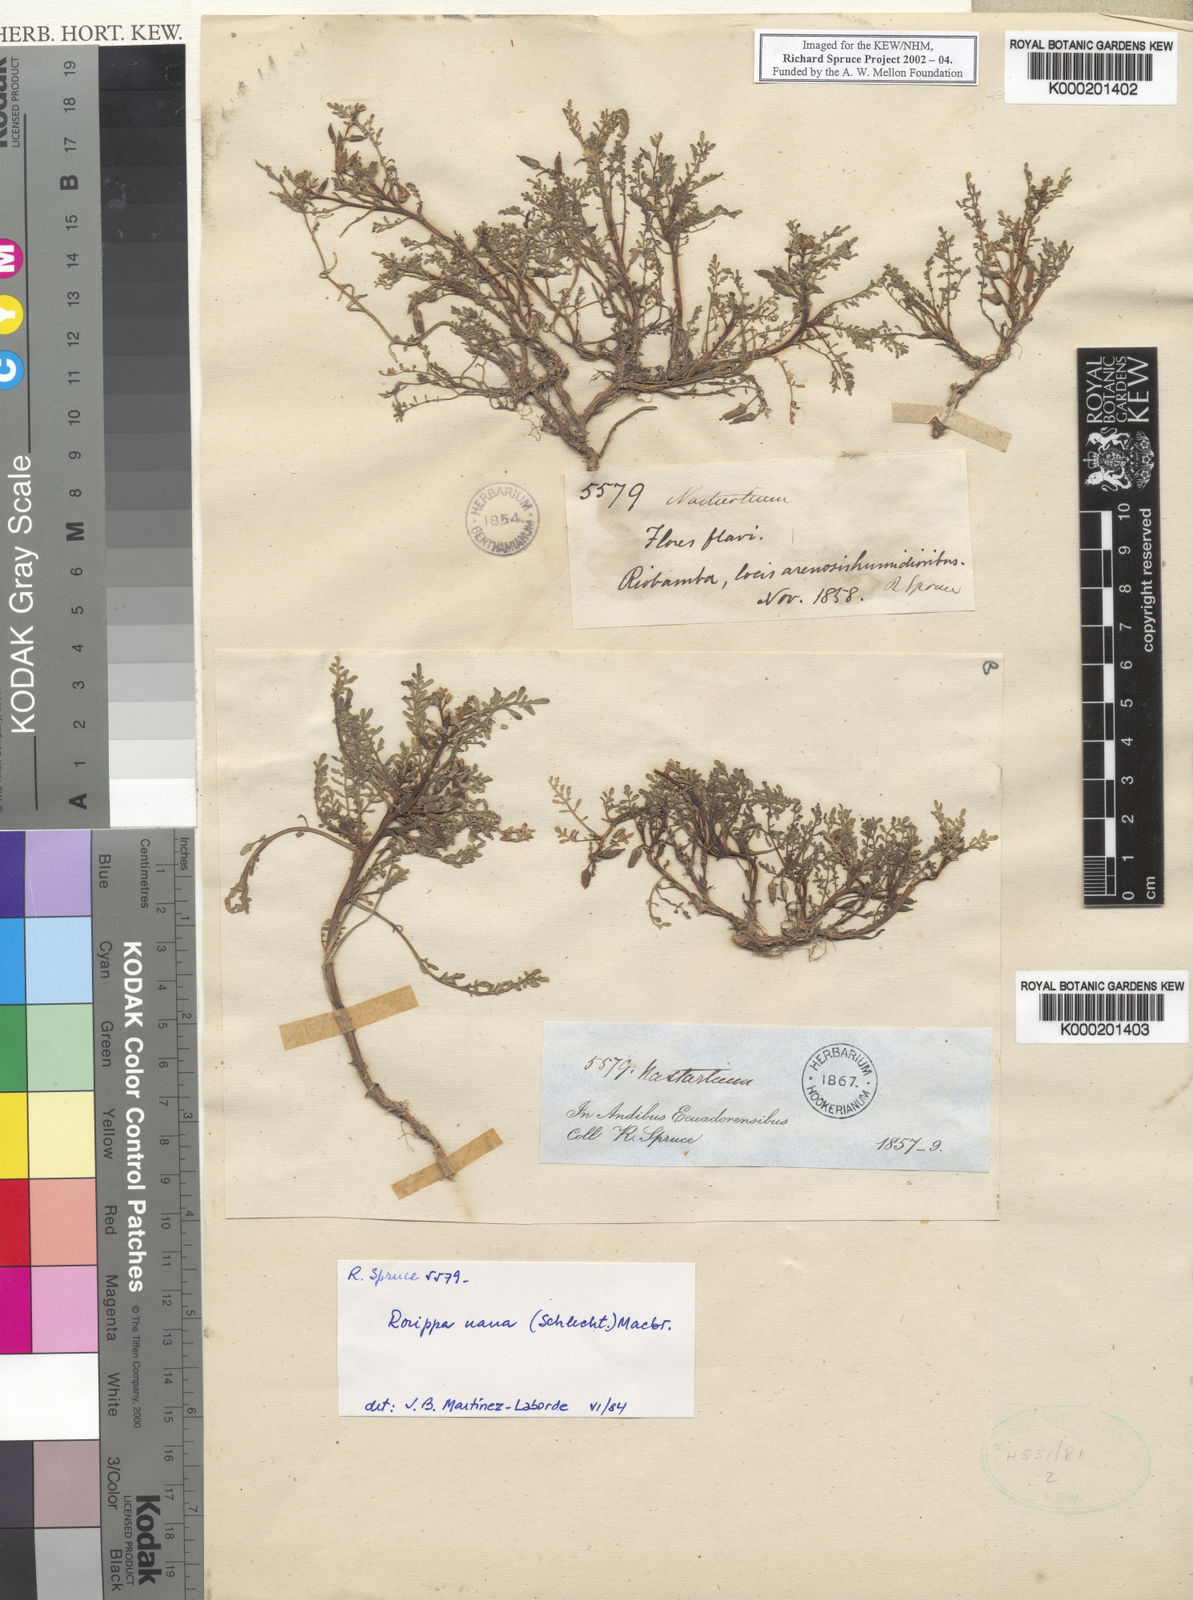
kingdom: Plantae
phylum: Tracheophyta
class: Magnoliopsida
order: Brassicales
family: Brassicaceae
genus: Rorippa
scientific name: Rorippa nana
